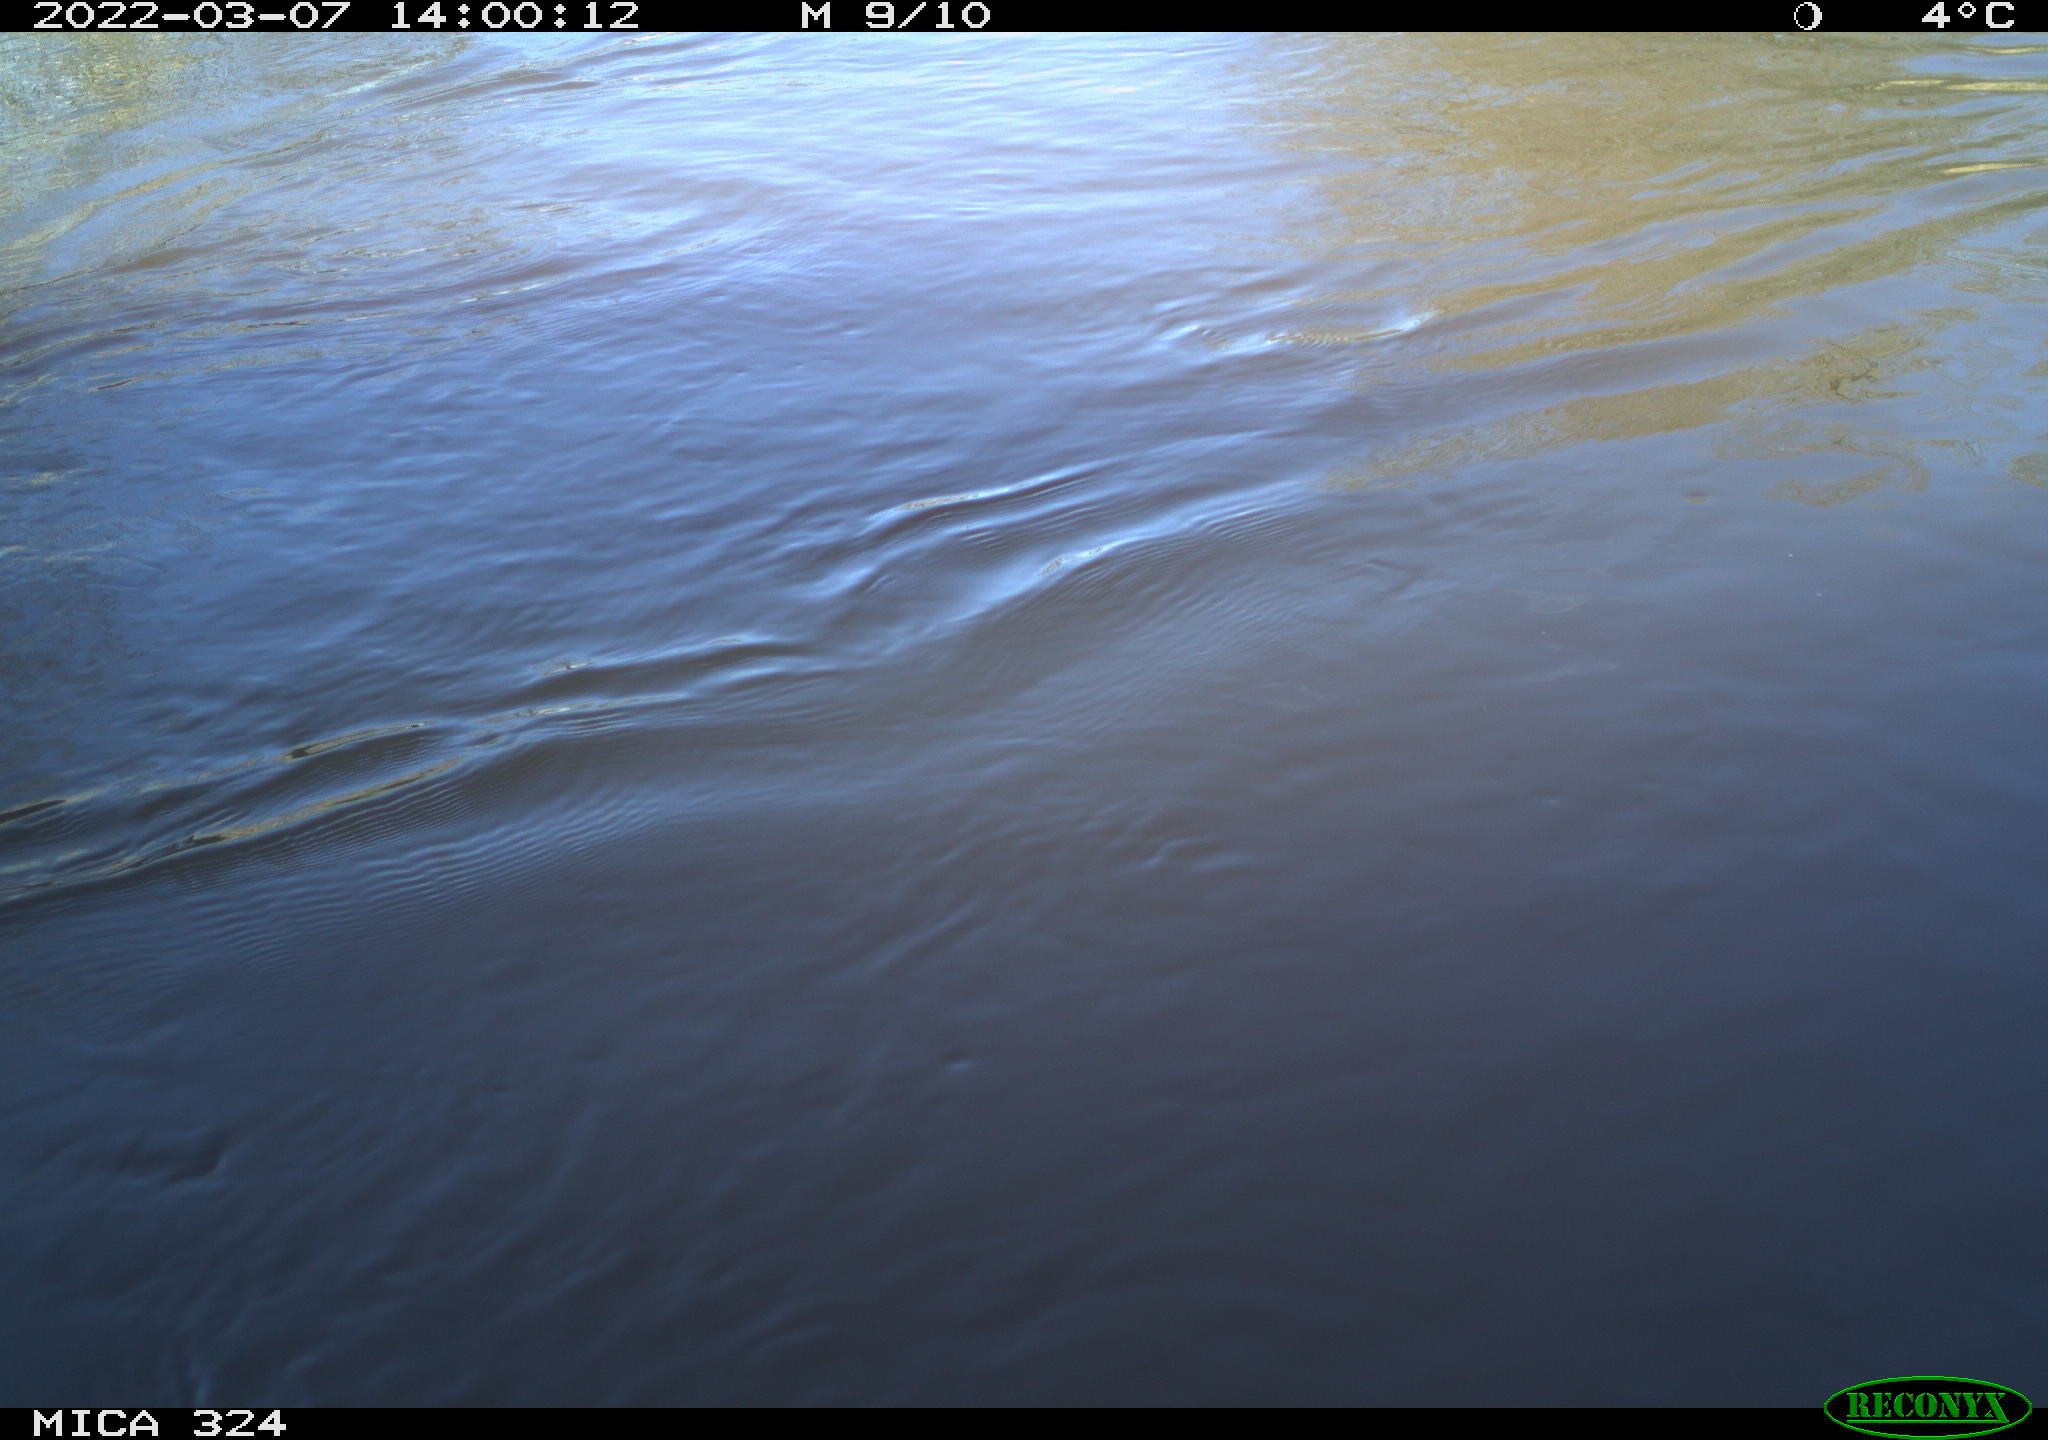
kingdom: Animalia
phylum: Chordata
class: Aves
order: Gruiformes
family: Rallidae
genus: Fulica
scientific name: Fulica atra
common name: Eurasian coot
